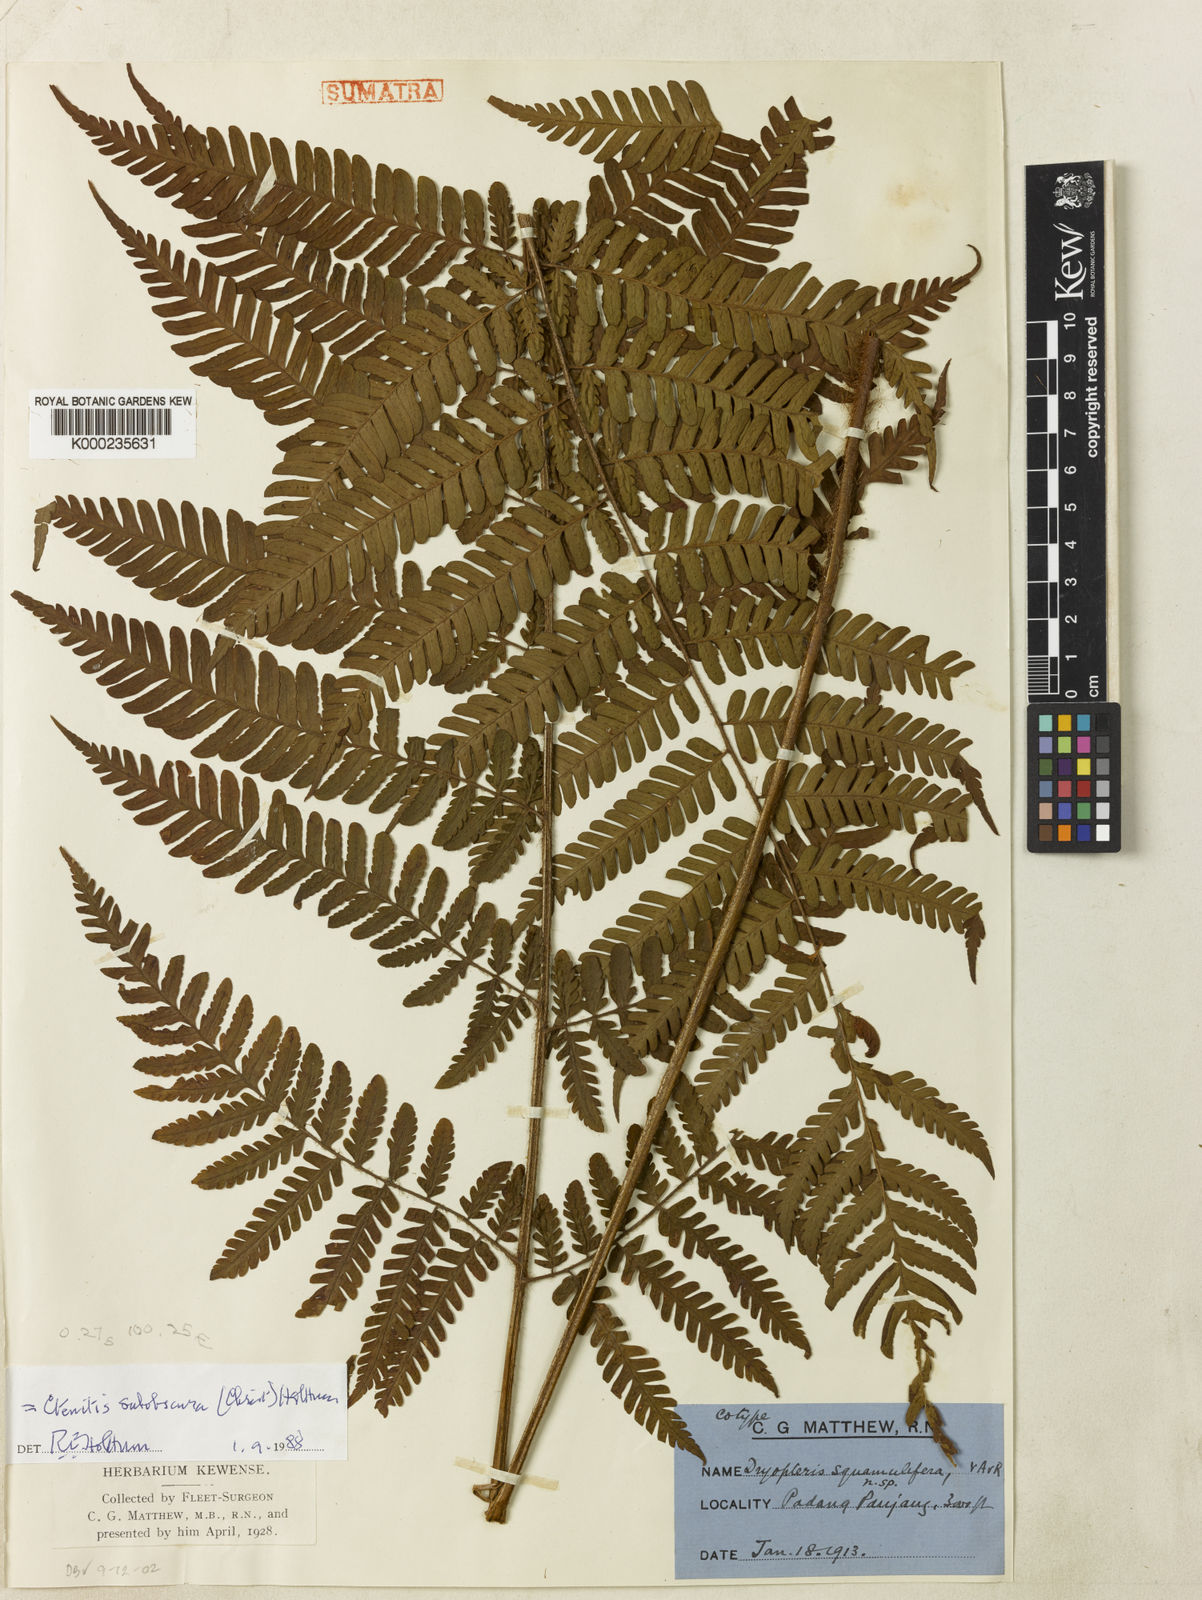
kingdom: Plantae
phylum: Tracheophyta
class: Polypodiopsida
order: Polypodiales
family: Dryopteridaceae
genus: Ctenitis
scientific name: Ctenitis subobscura
